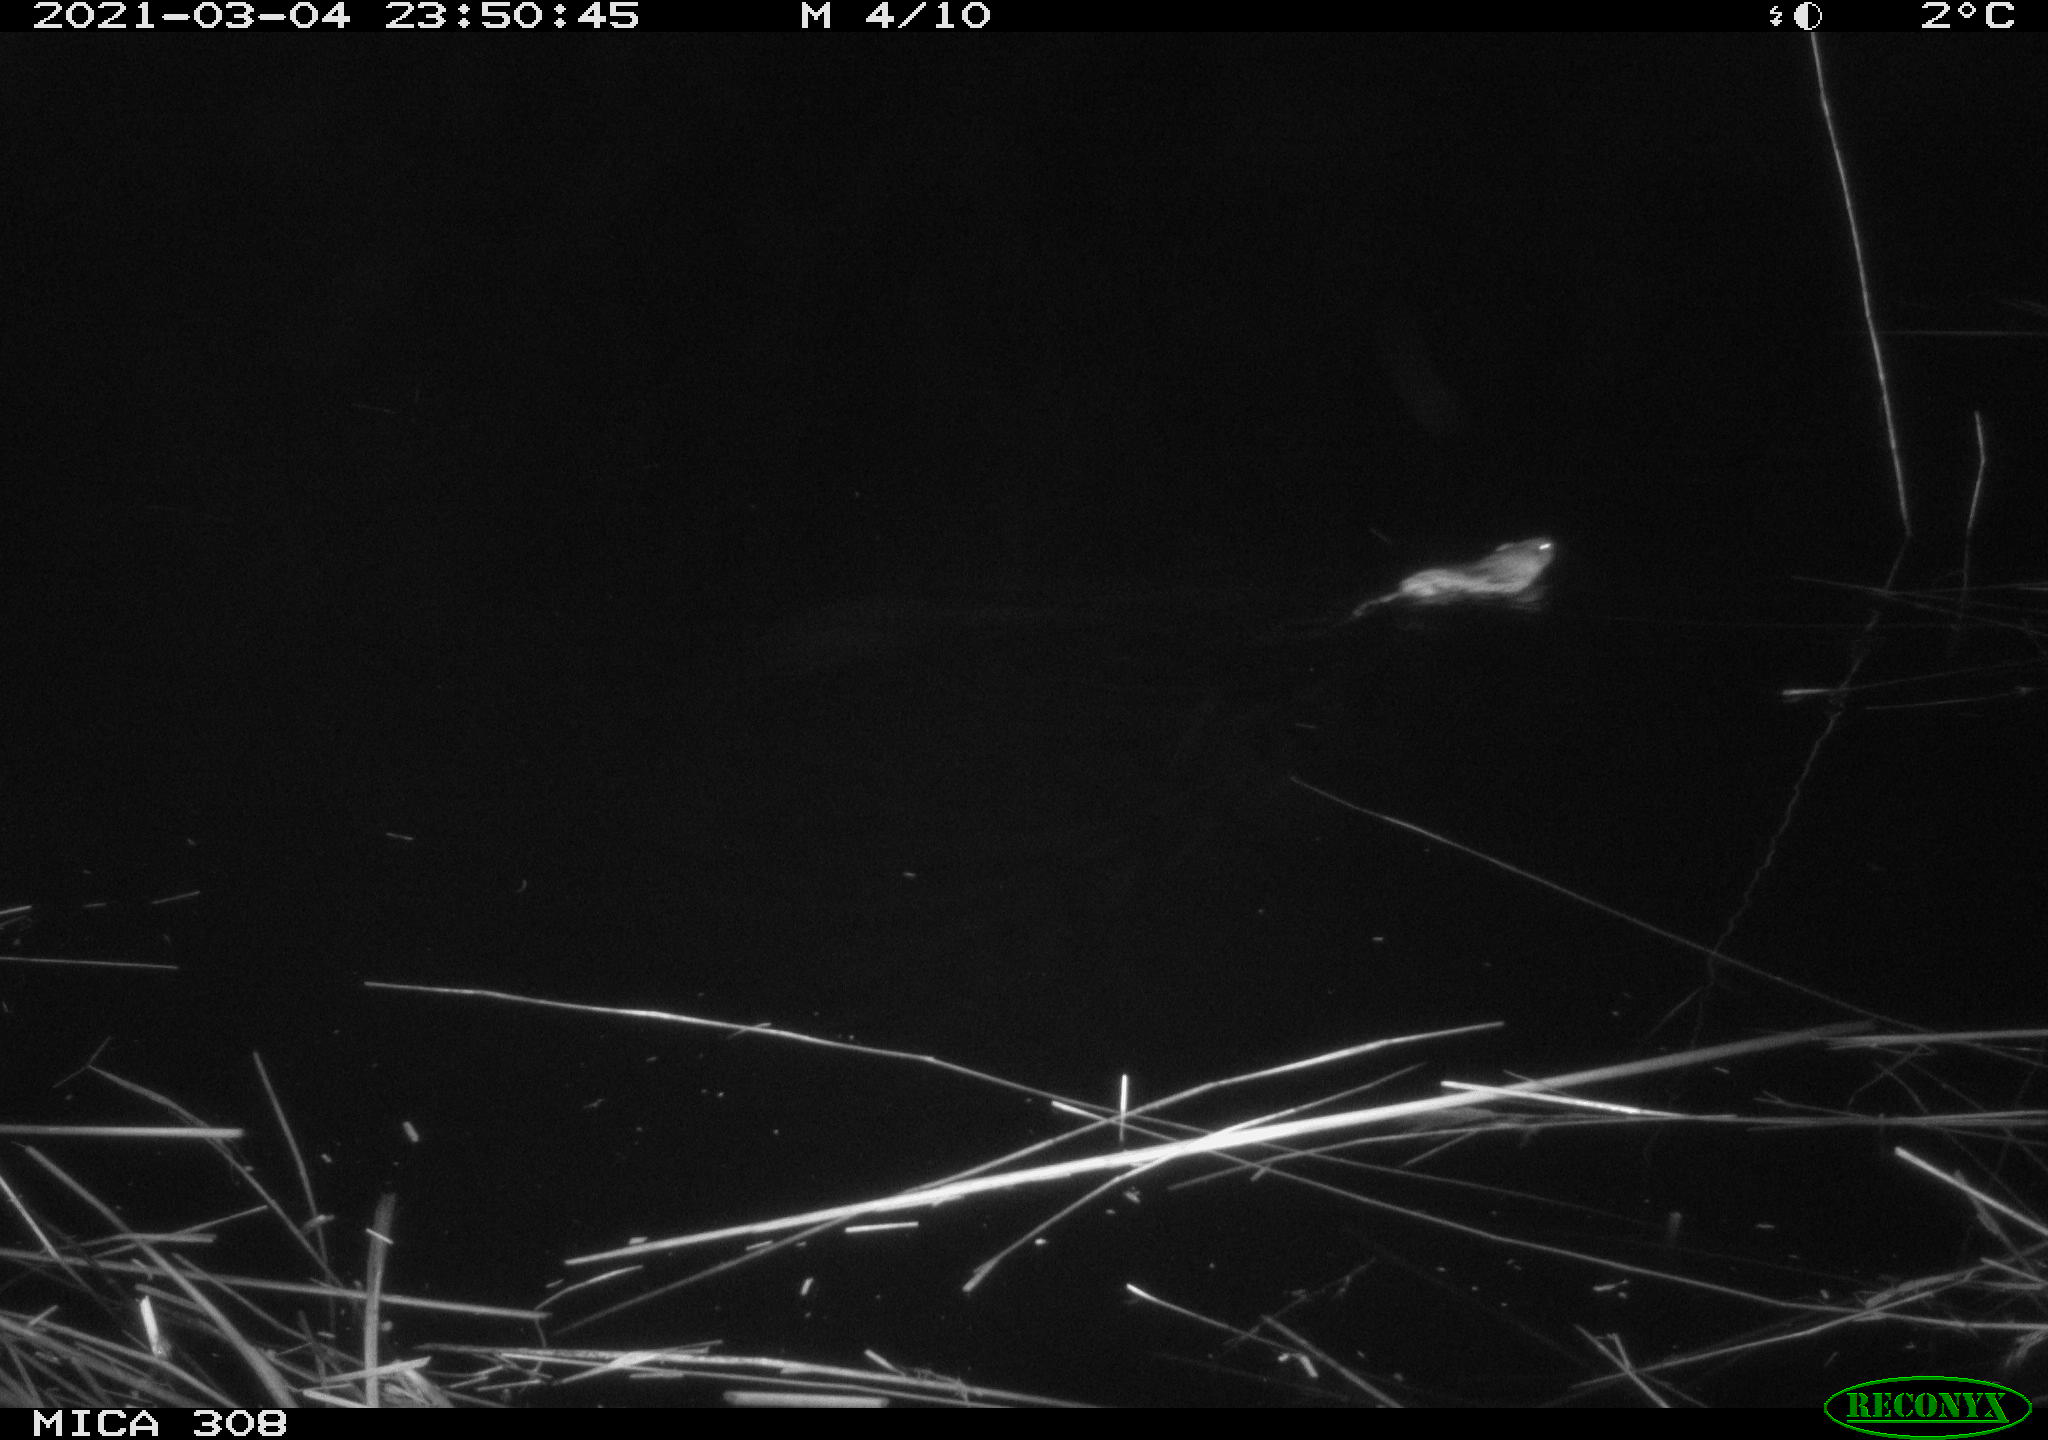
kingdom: Animalia
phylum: Chordata
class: Mammalia
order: Rodentia
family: Muridae
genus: Rattus
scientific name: Rattus norvegicus
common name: Brown rat
